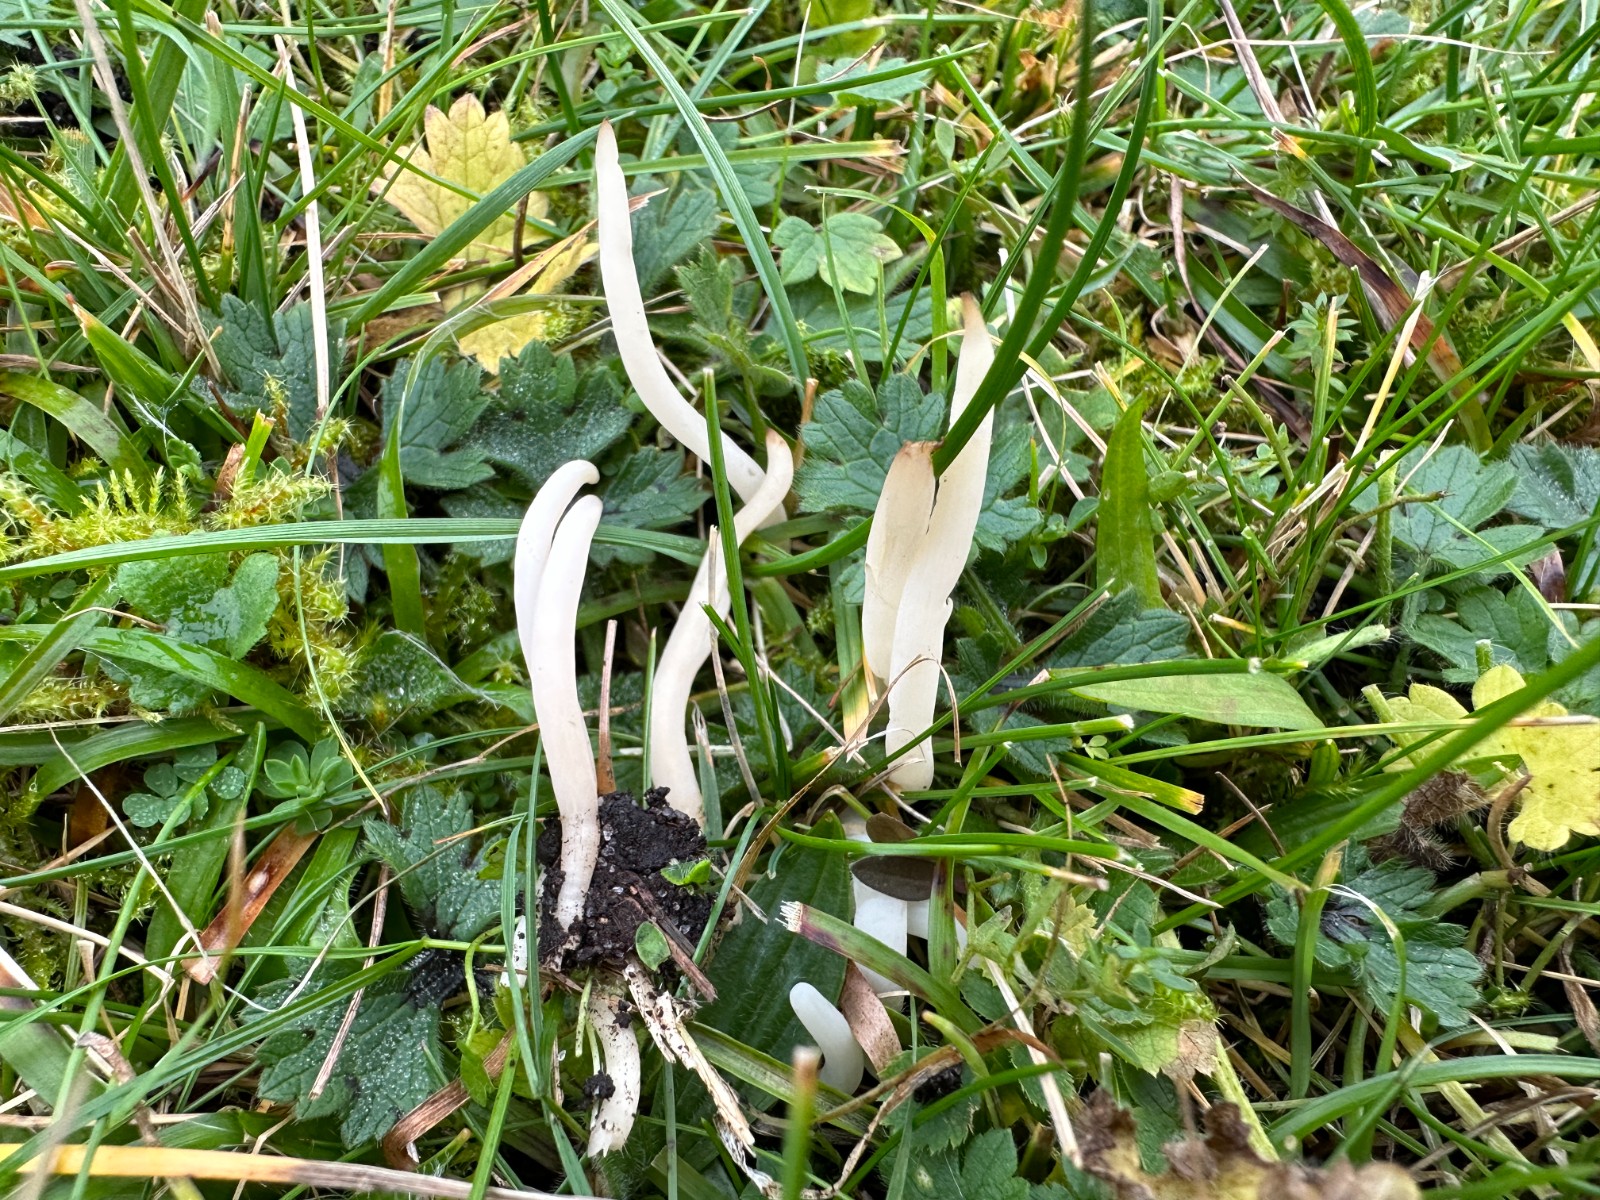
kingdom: Fungi
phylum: Basidiomycota
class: Agaricomycetes
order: Agaricales
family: Clavariaceae
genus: Clavaria
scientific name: Clavaria fragilis
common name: bugtet køllesvamp
